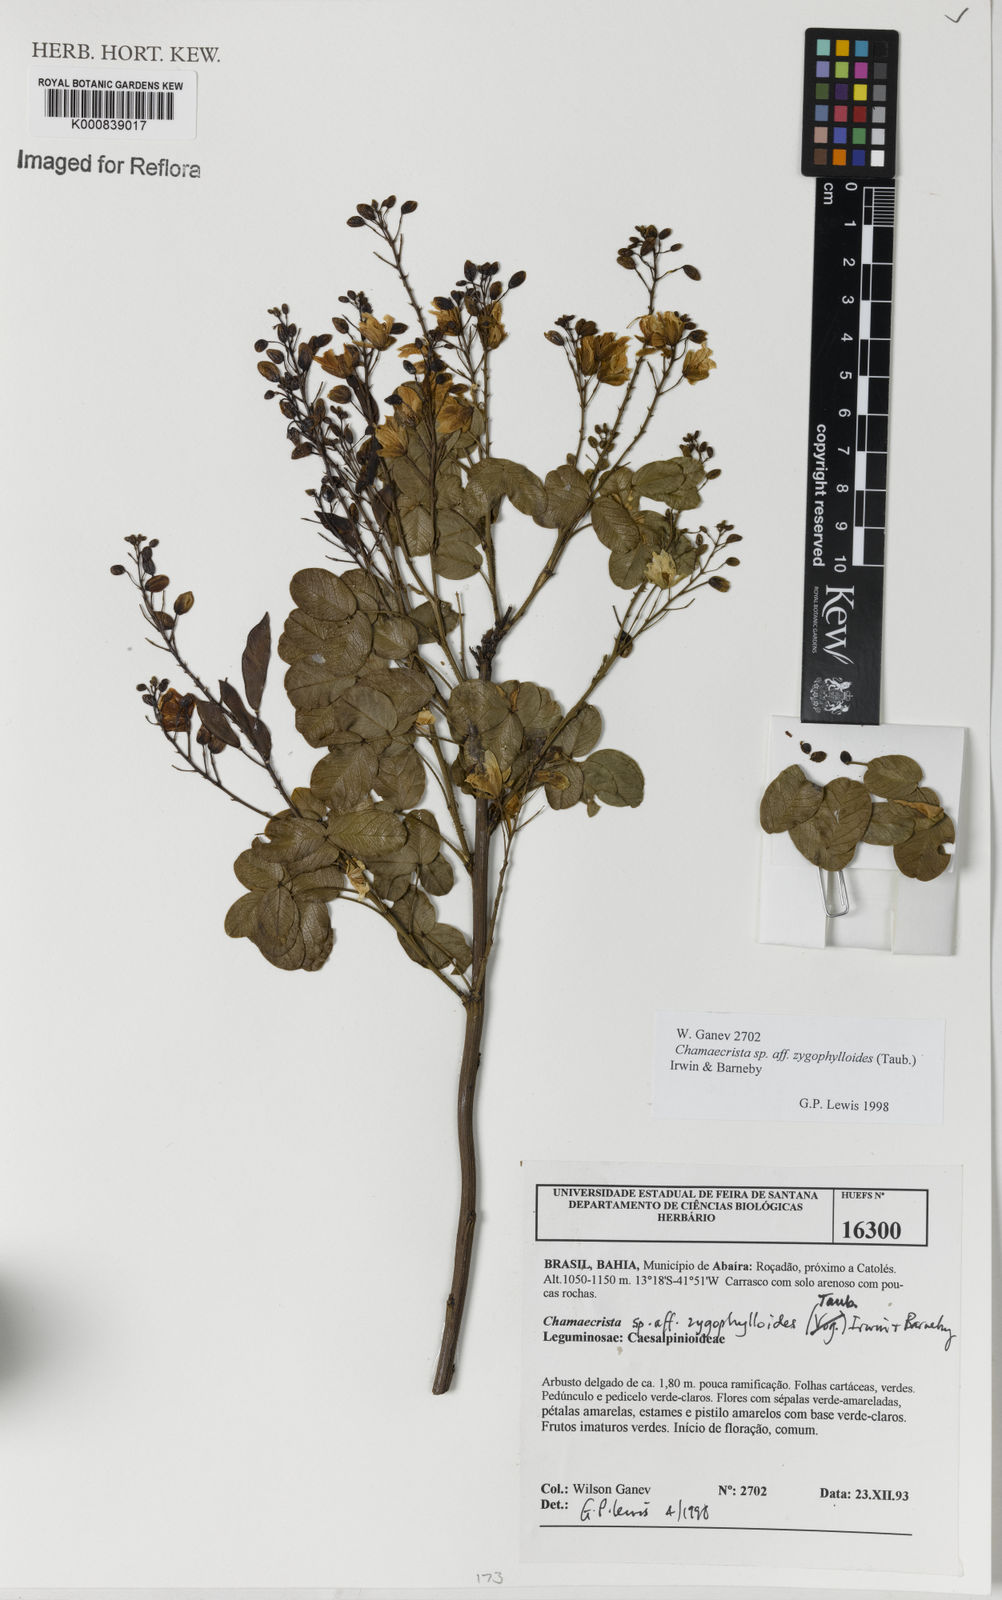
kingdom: Plantae
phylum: Tracheophyta
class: Magnoliopsida
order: Fabales
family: Fabaceae
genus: Chamaecrista
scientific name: Chamaecrista zygophylloides
